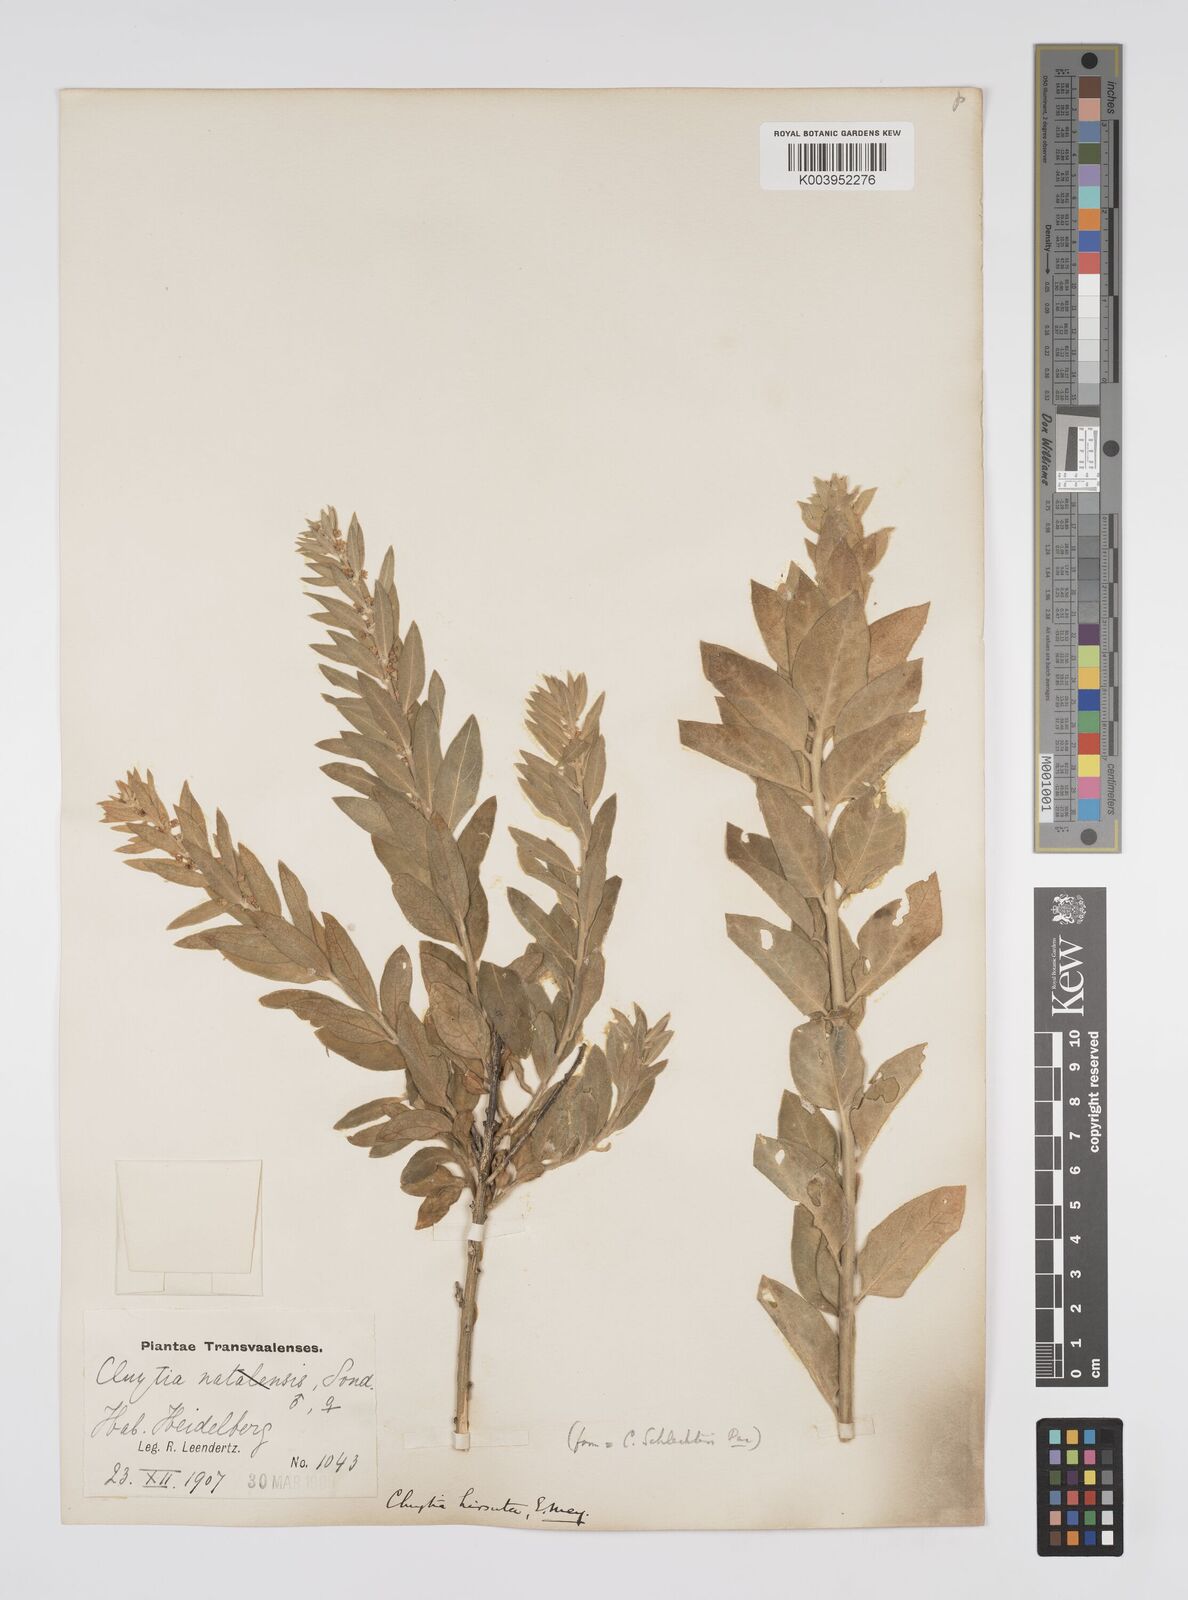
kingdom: Plantae
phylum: Tracheophyta
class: Magnoliopsida
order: Malpighiales
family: Peraceae
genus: Clutia
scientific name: Clutia affinis
